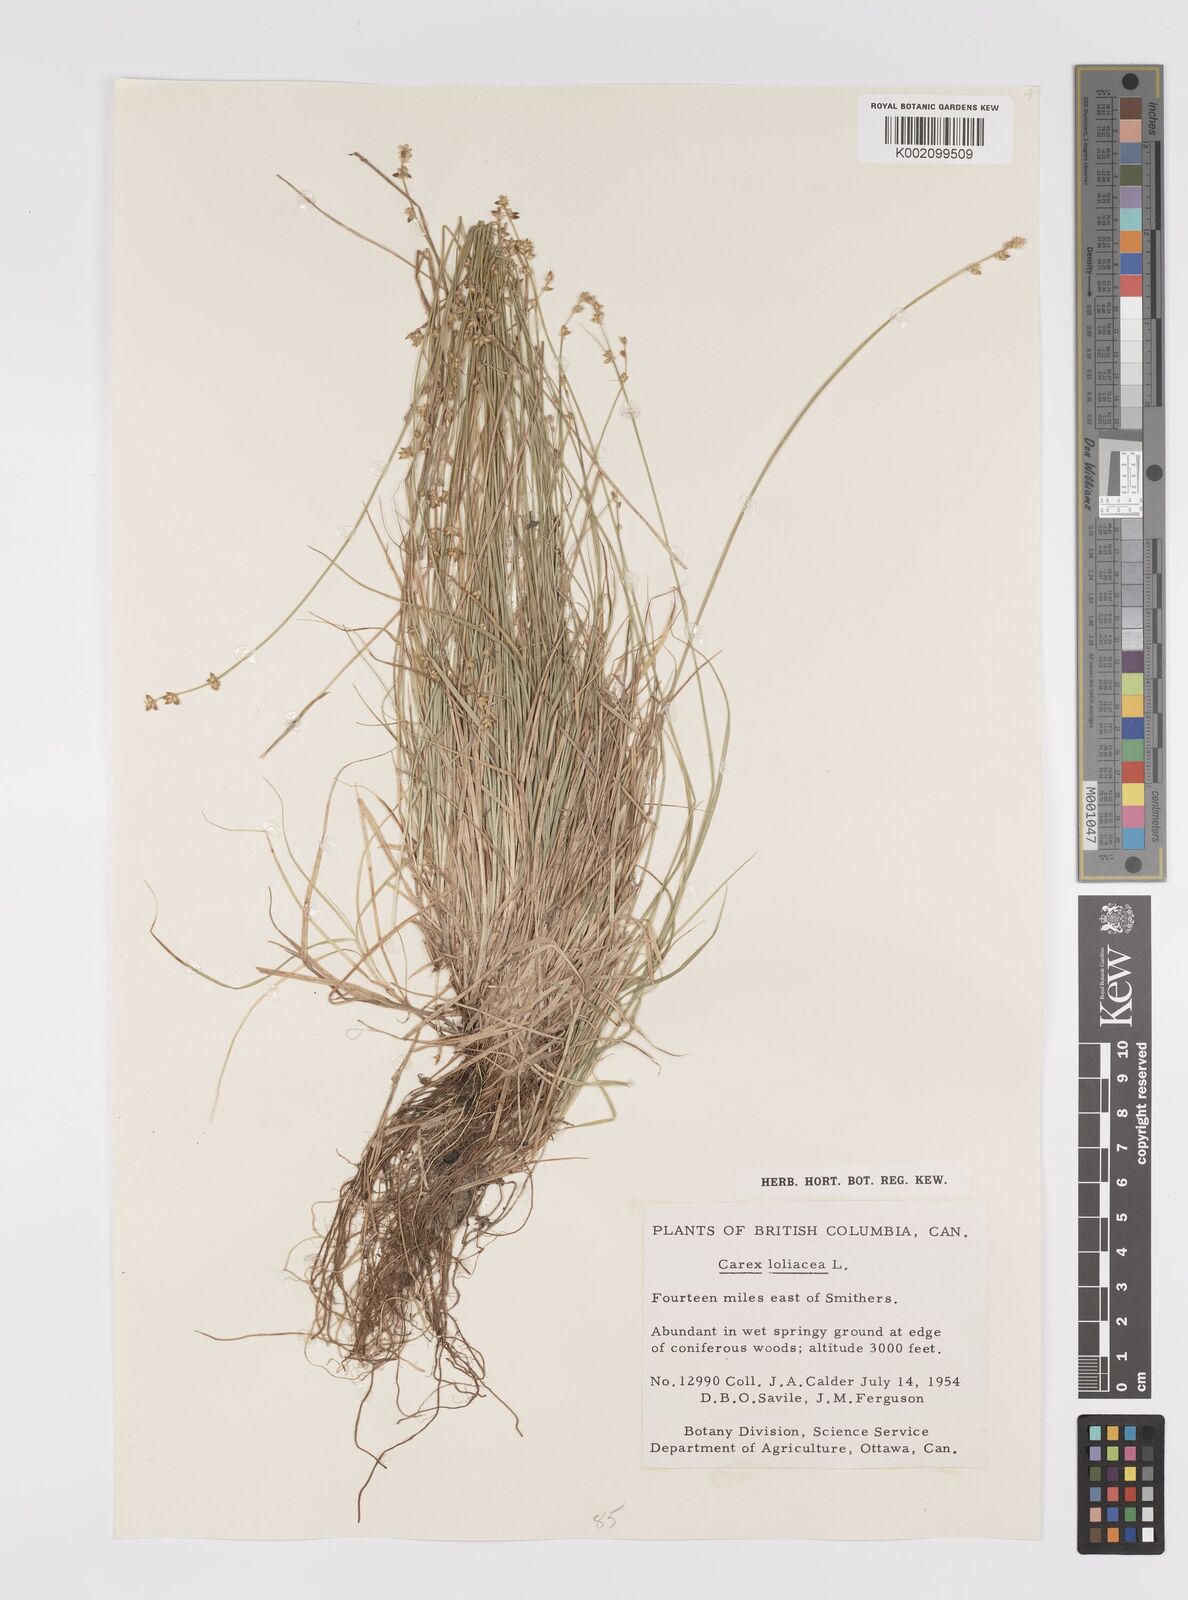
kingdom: Plantae
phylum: Tracheophyta
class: Liliopsida
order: Poales
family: Cyperaceae
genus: Carex
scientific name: Carex loliacea
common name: Ryegrass sedge
